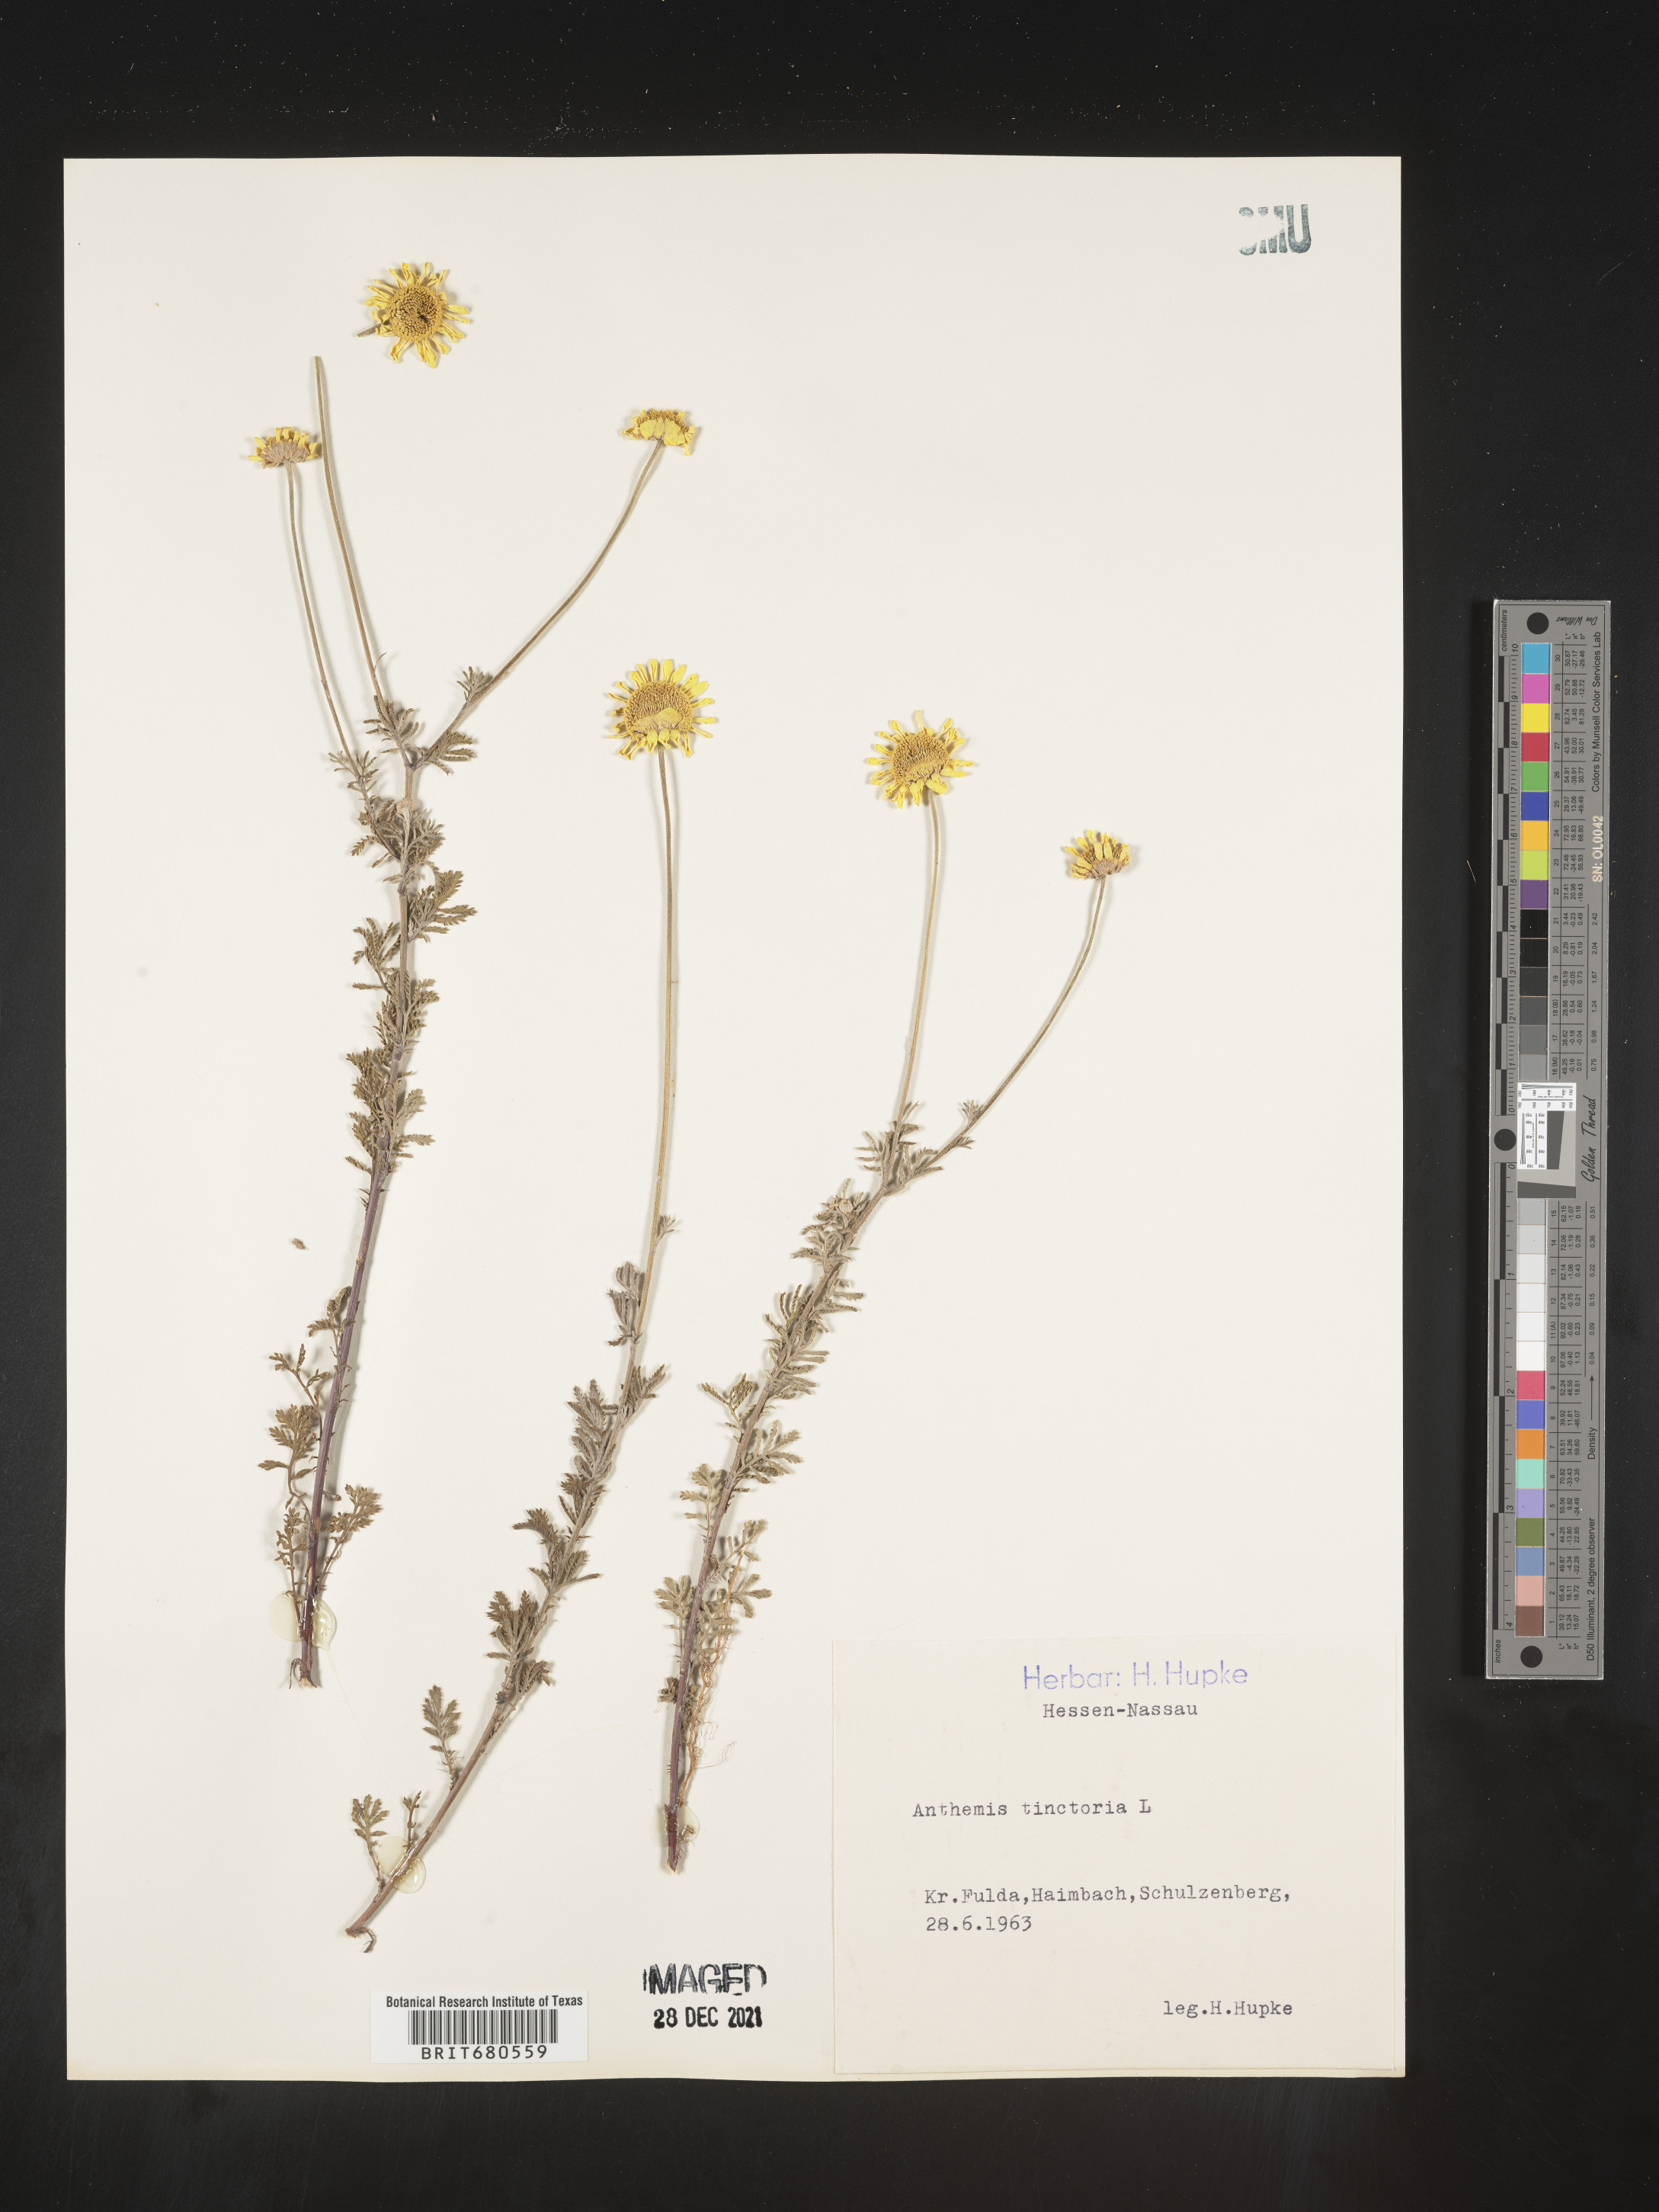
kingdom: Plantae
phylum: Tracheophyta
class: Magnoliopsida
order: Asterales
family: Asteraceae
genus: Anthemis
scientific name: Anthemis
